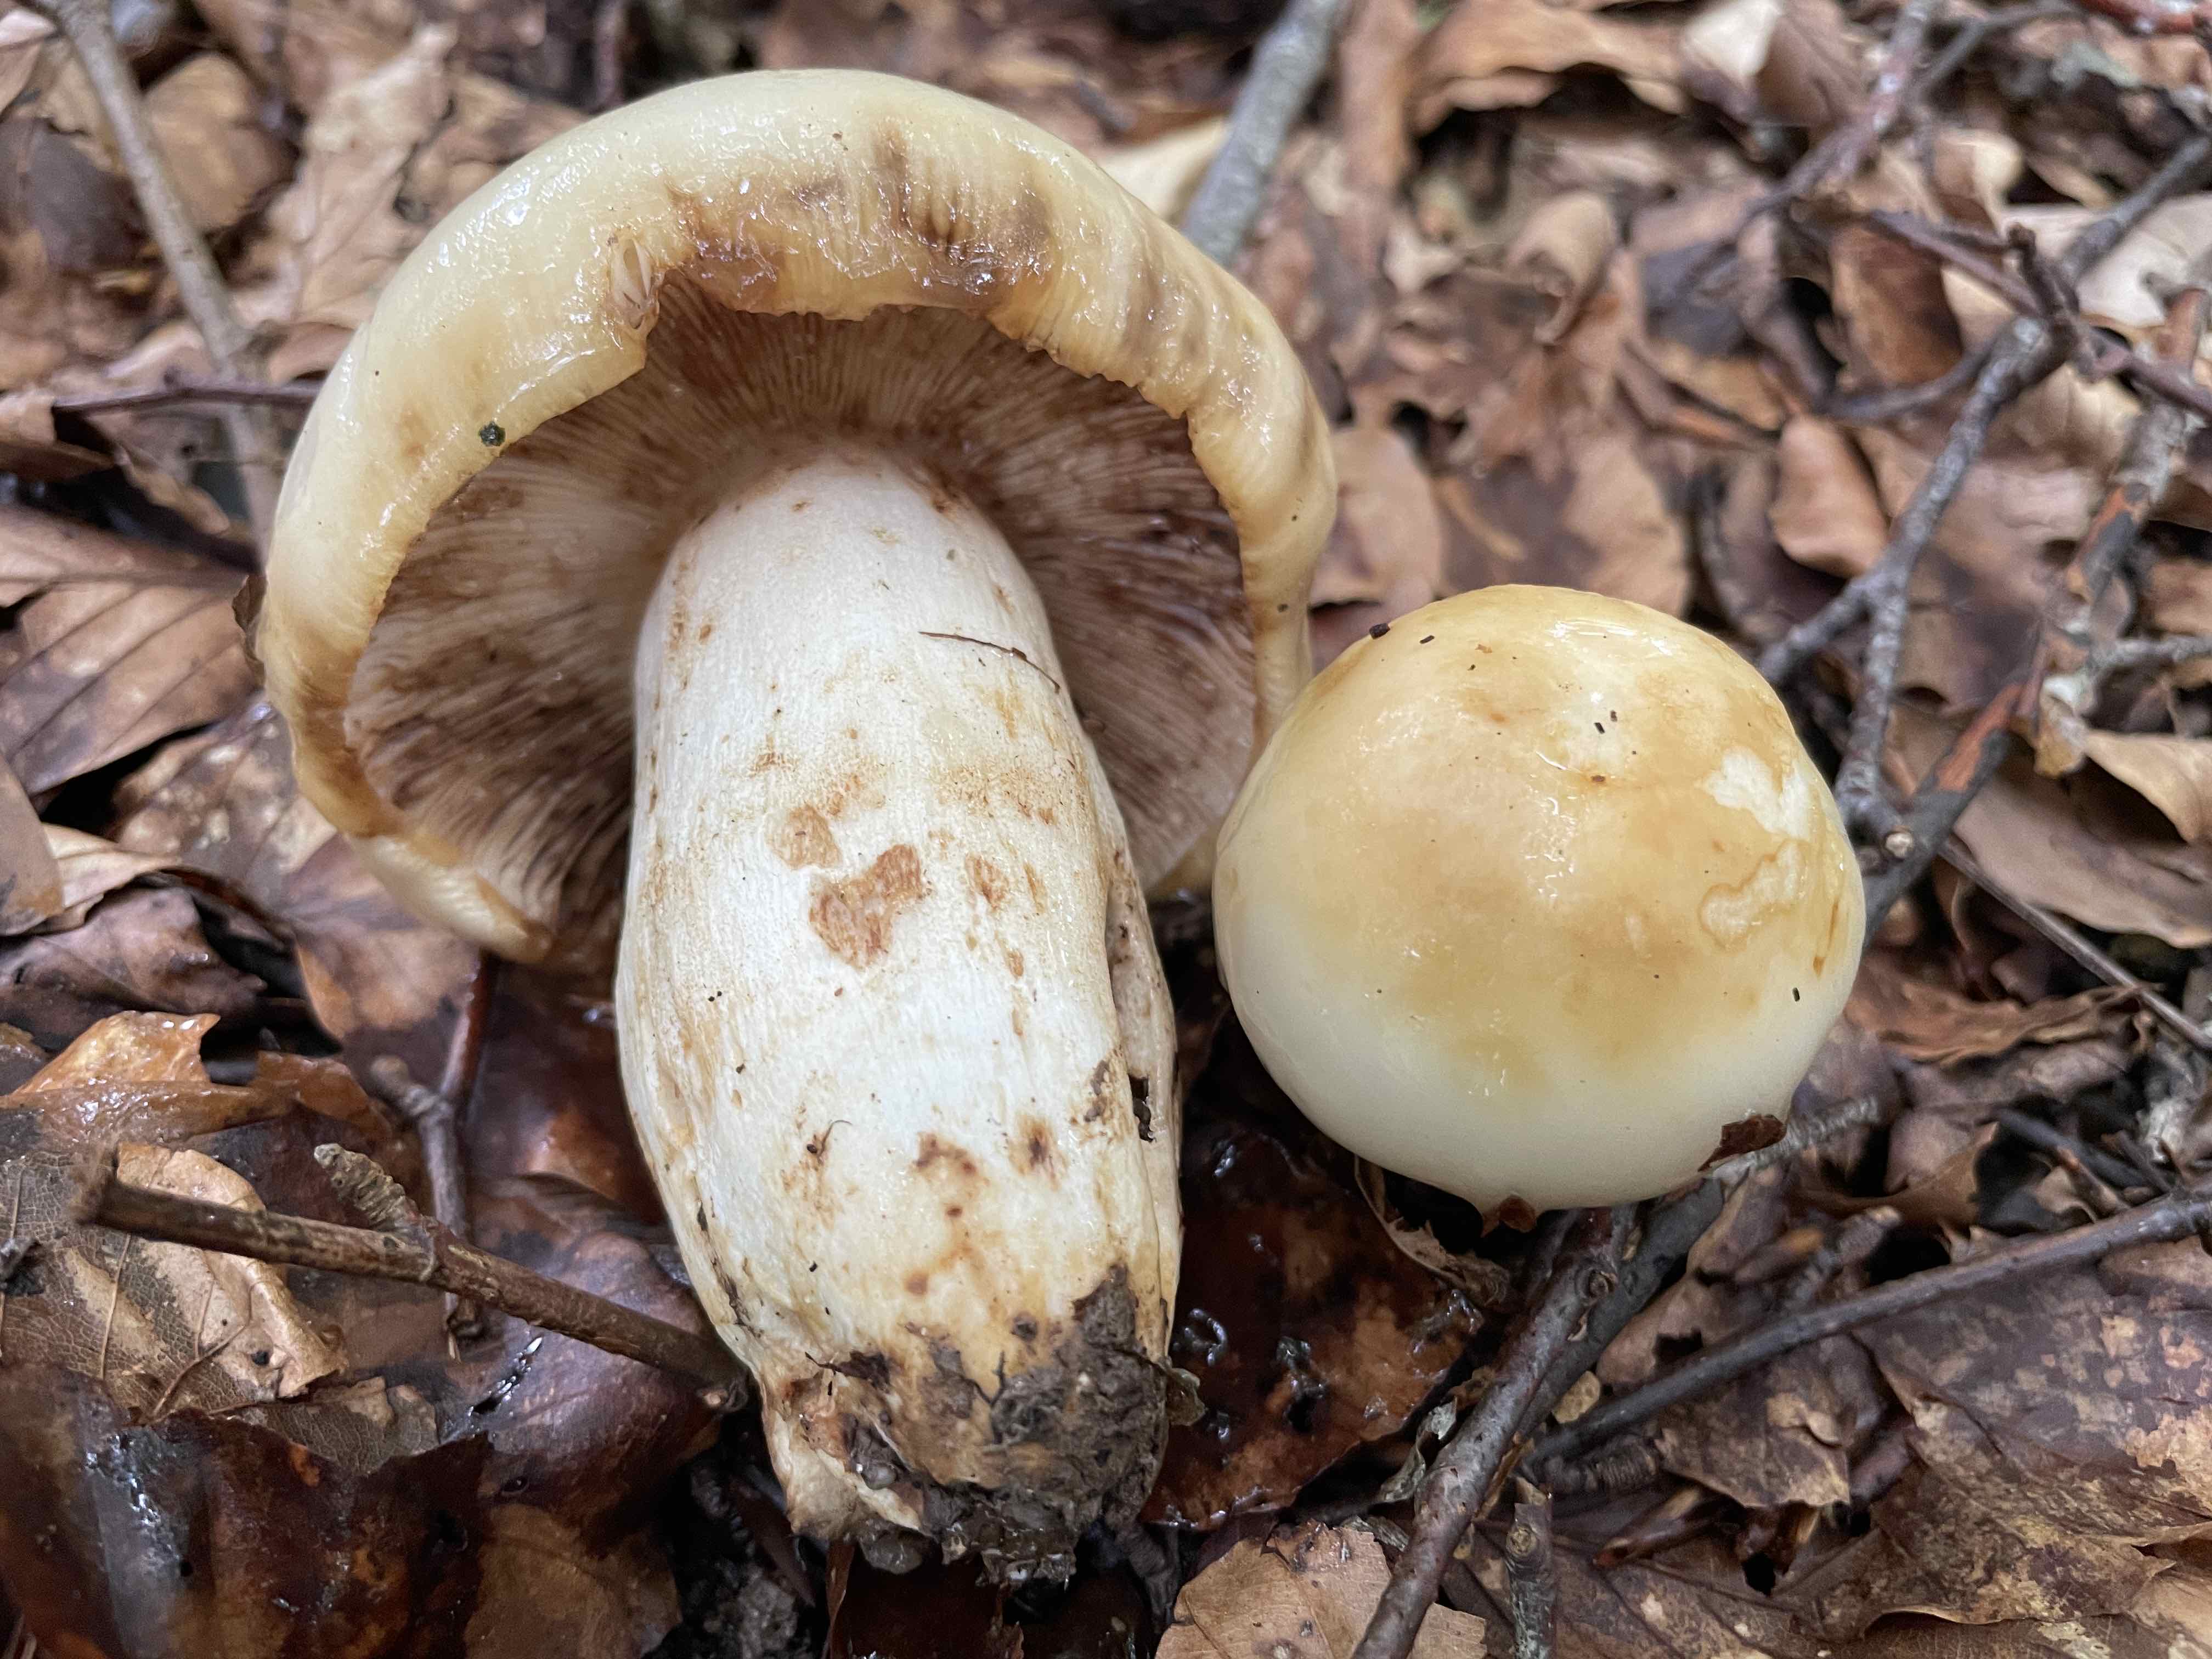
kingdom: Fungi
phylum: Basidiomycota
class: Agaricomycetes
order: Russulales
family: Russulaceae
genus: Russula
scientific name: Russula foetens
